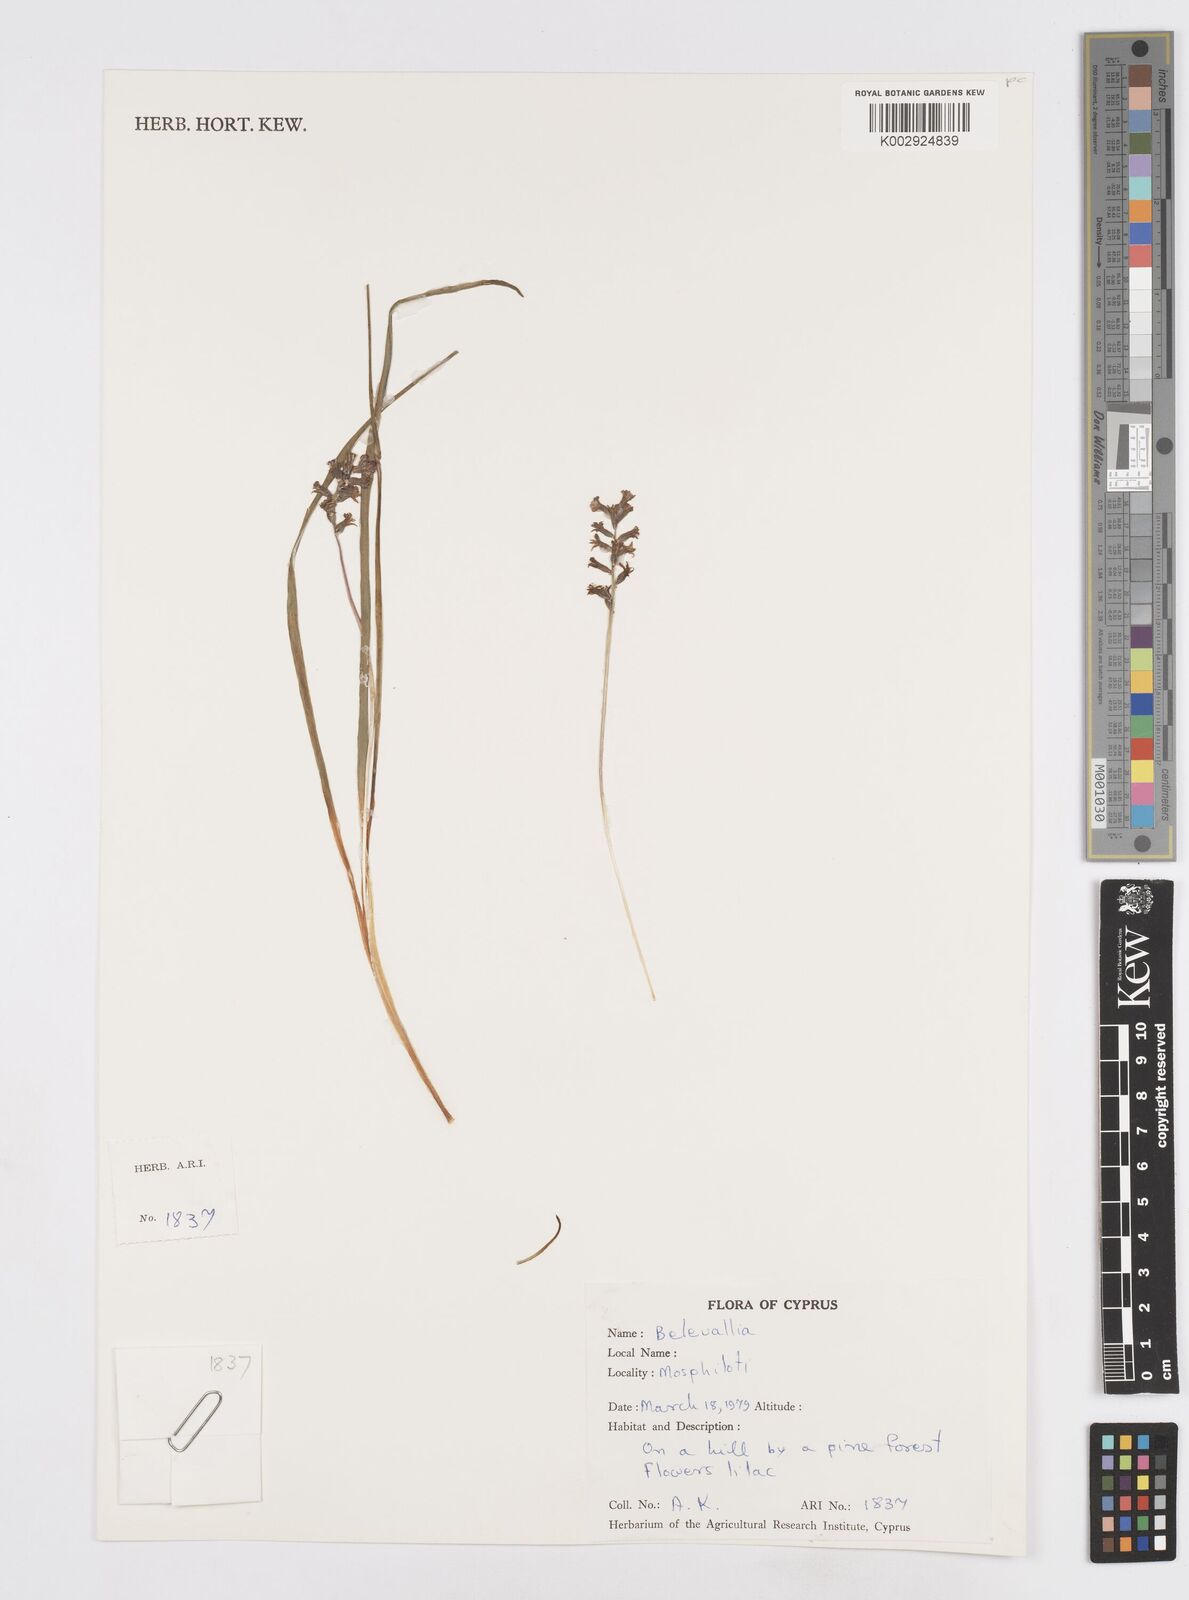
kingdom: Plantae
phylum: Tracheophyta
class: Liliopsida
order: Asparagales
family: Asparagaceae
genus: Bellevalia
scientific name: Bellevalia
